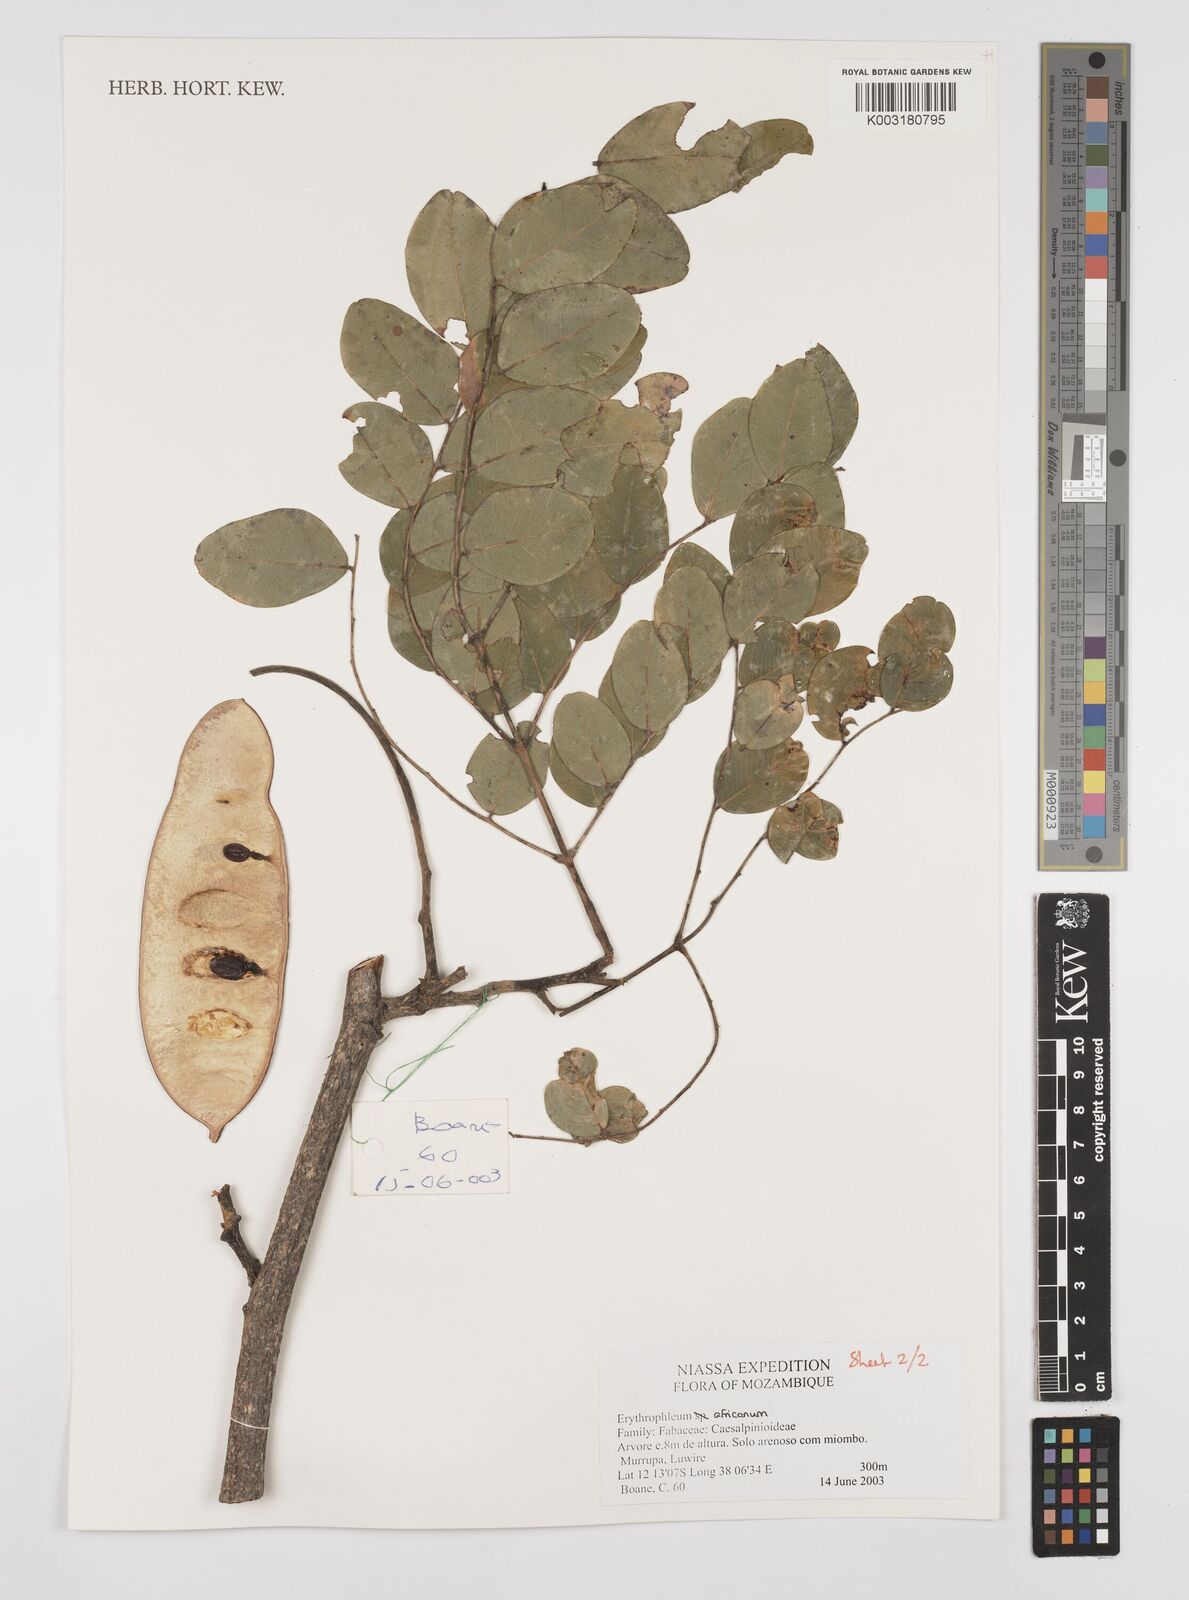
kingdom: Plantae
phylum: Tracheophyta
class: Magnoliopsida
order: Fabales
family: Fabaceae
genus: Peltophorum
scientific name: Peltophorum africanum
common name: African black wattle
